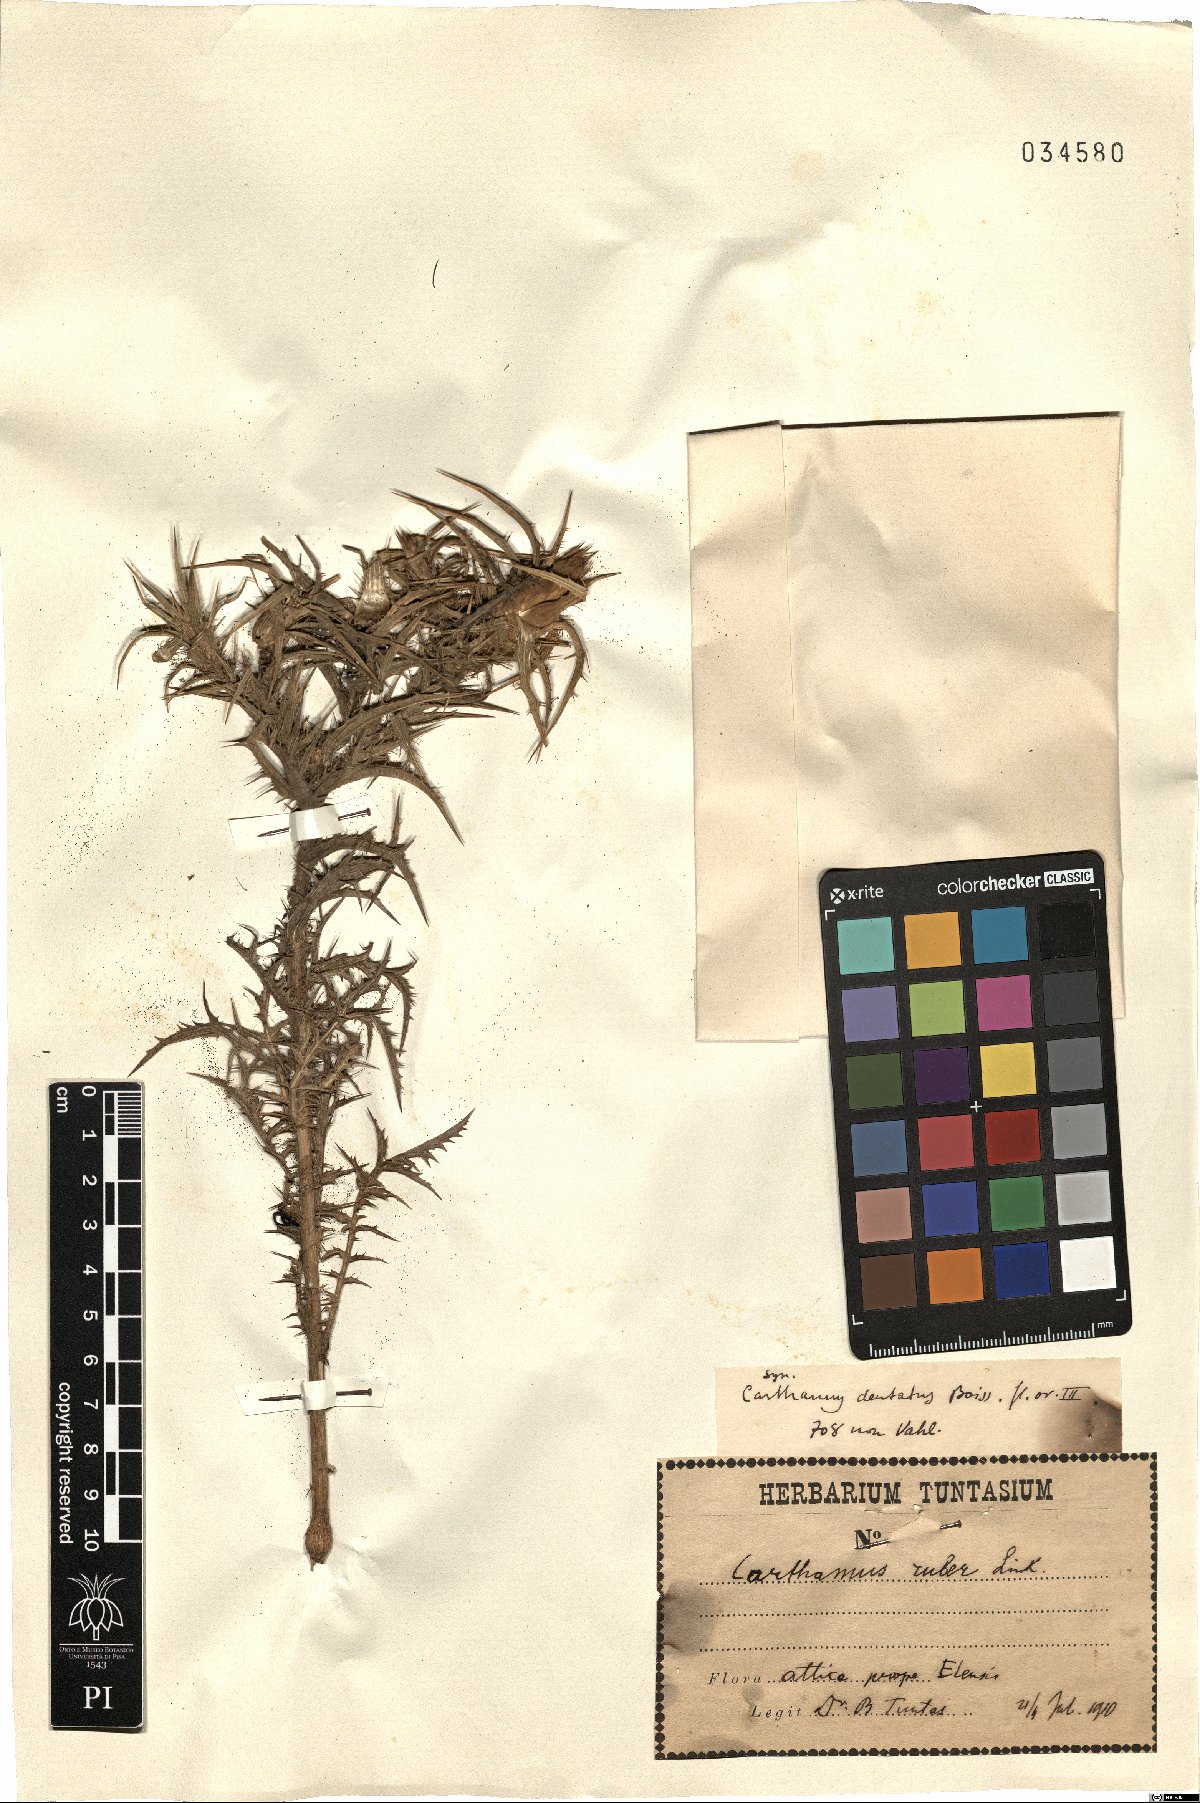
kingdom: Plantae
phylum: Tracheophyta
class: Magnoliopsida
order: Asterales
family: Asteraceae
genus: Carthamus
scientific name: Carthamus dentatus
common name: Toothed thistle
